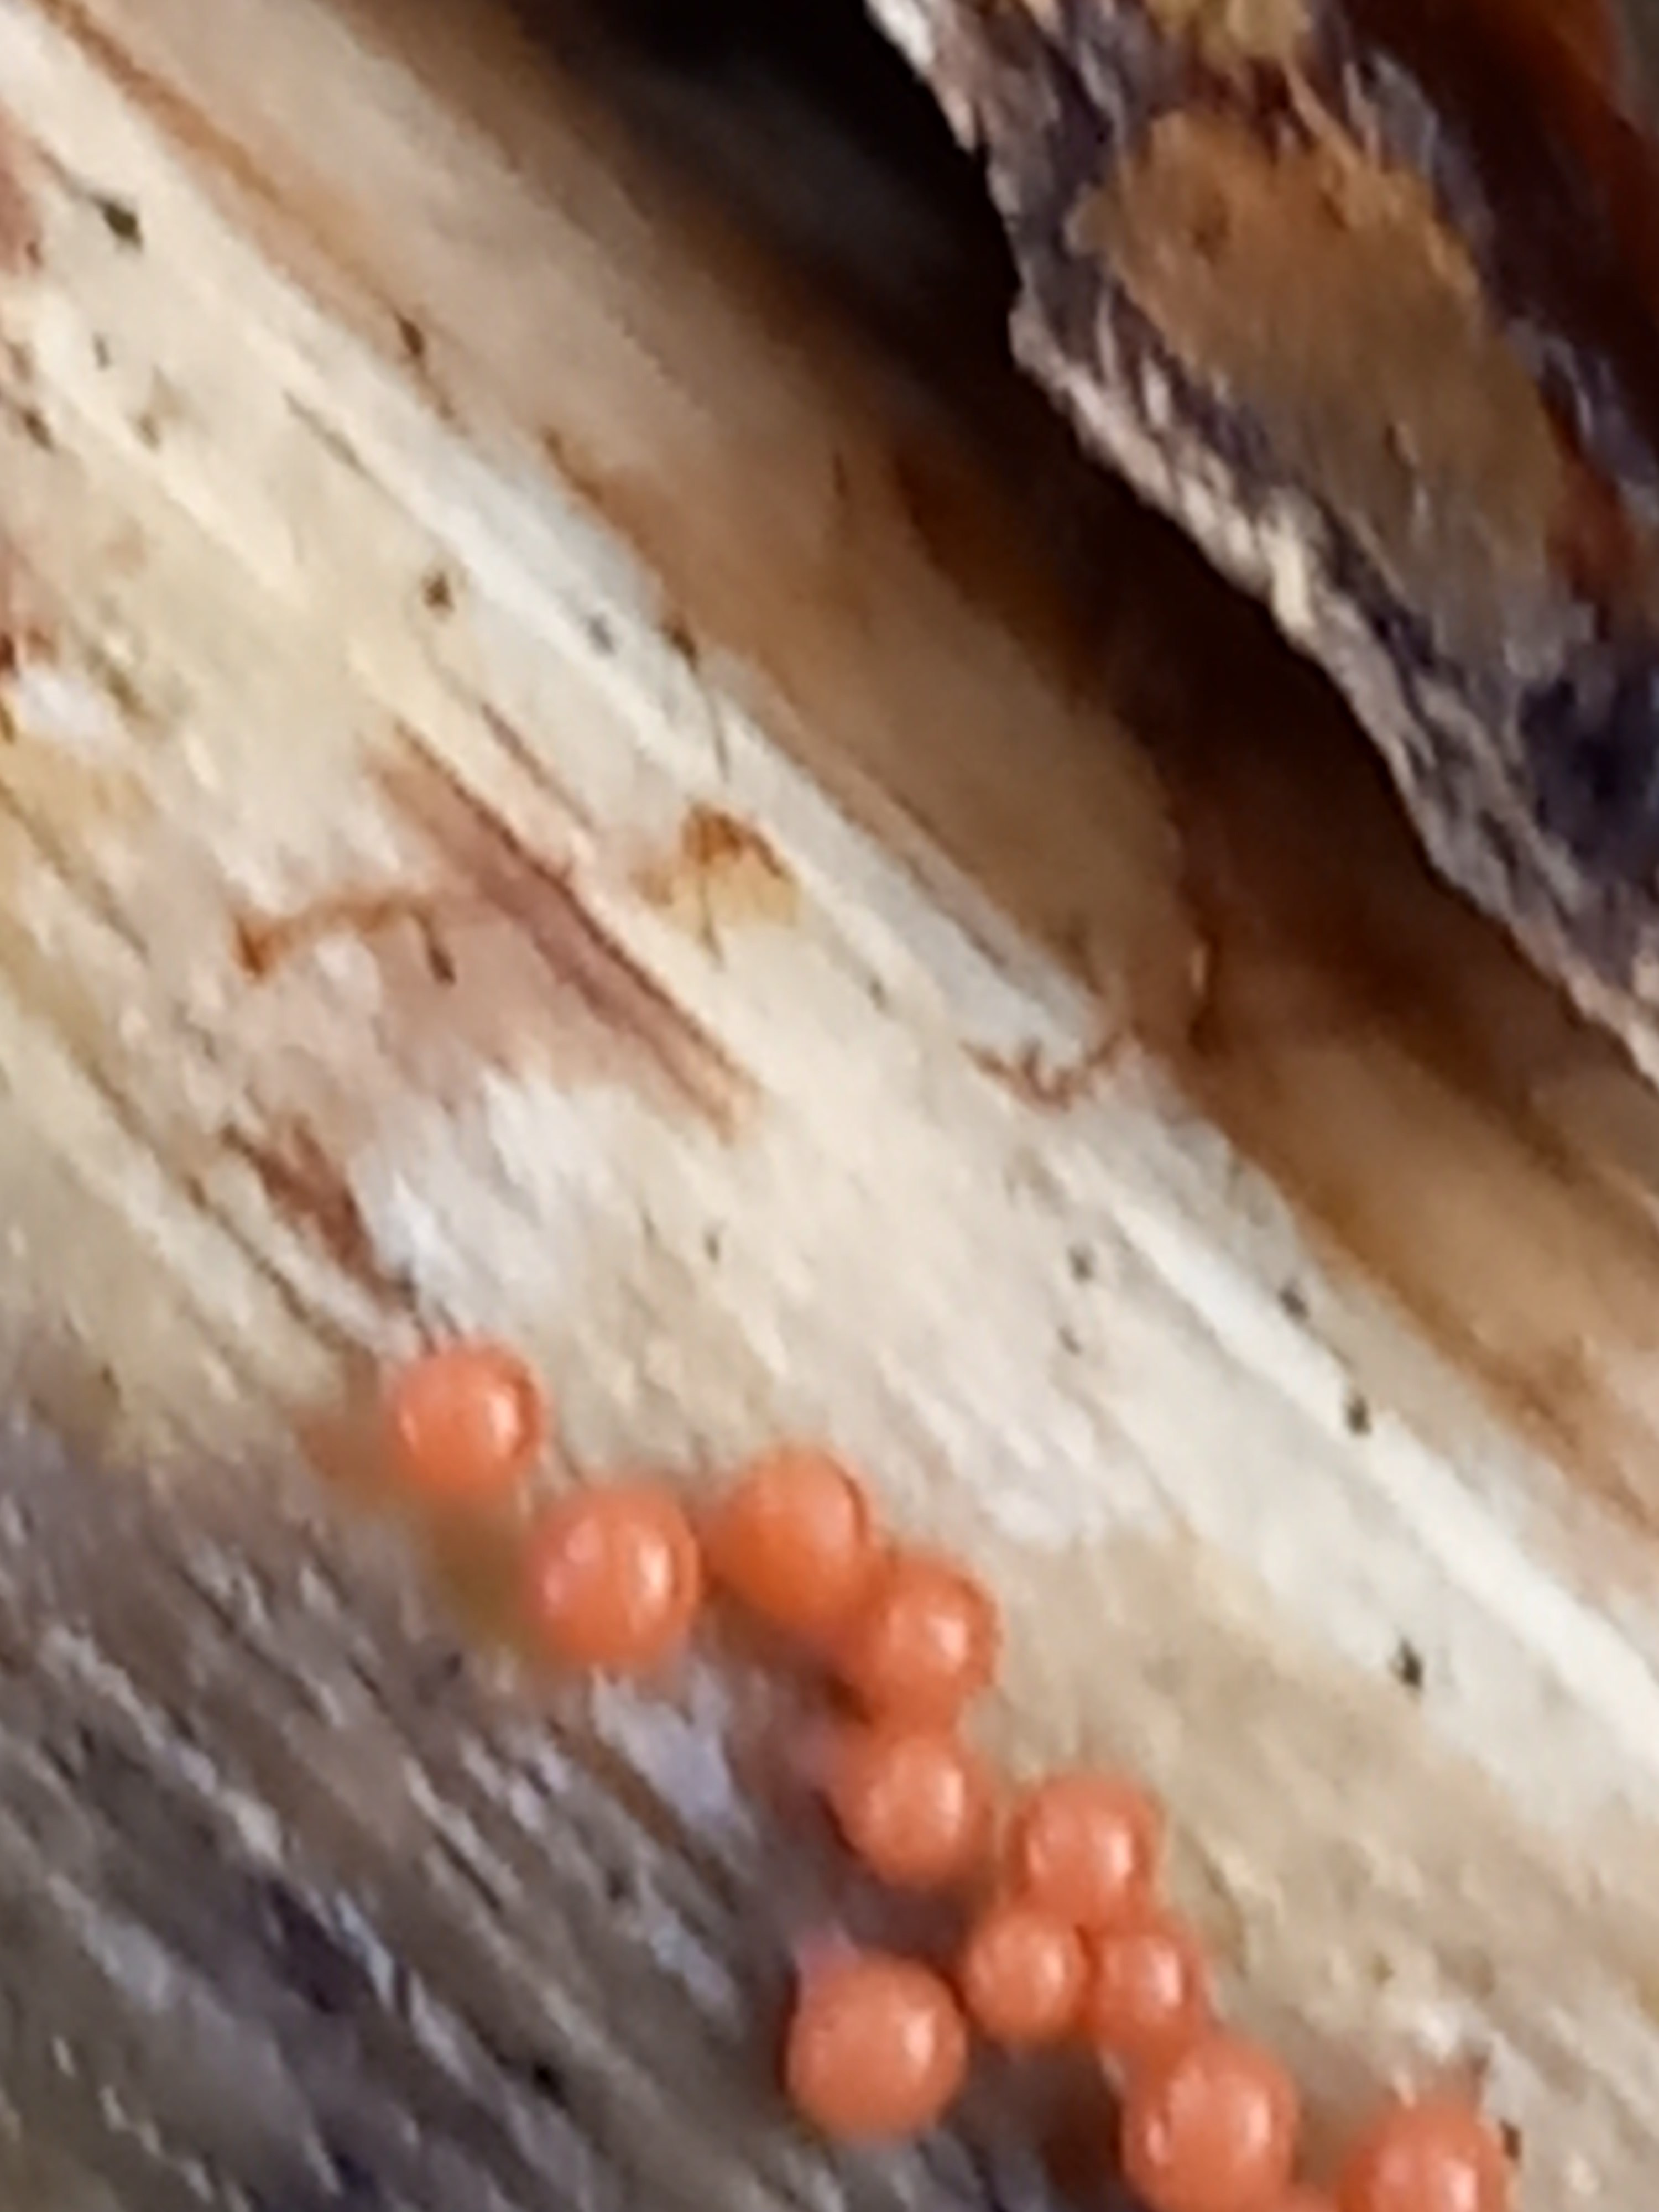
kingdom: Protozoa
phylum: Mycetozoa
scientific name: Mycetozoa
